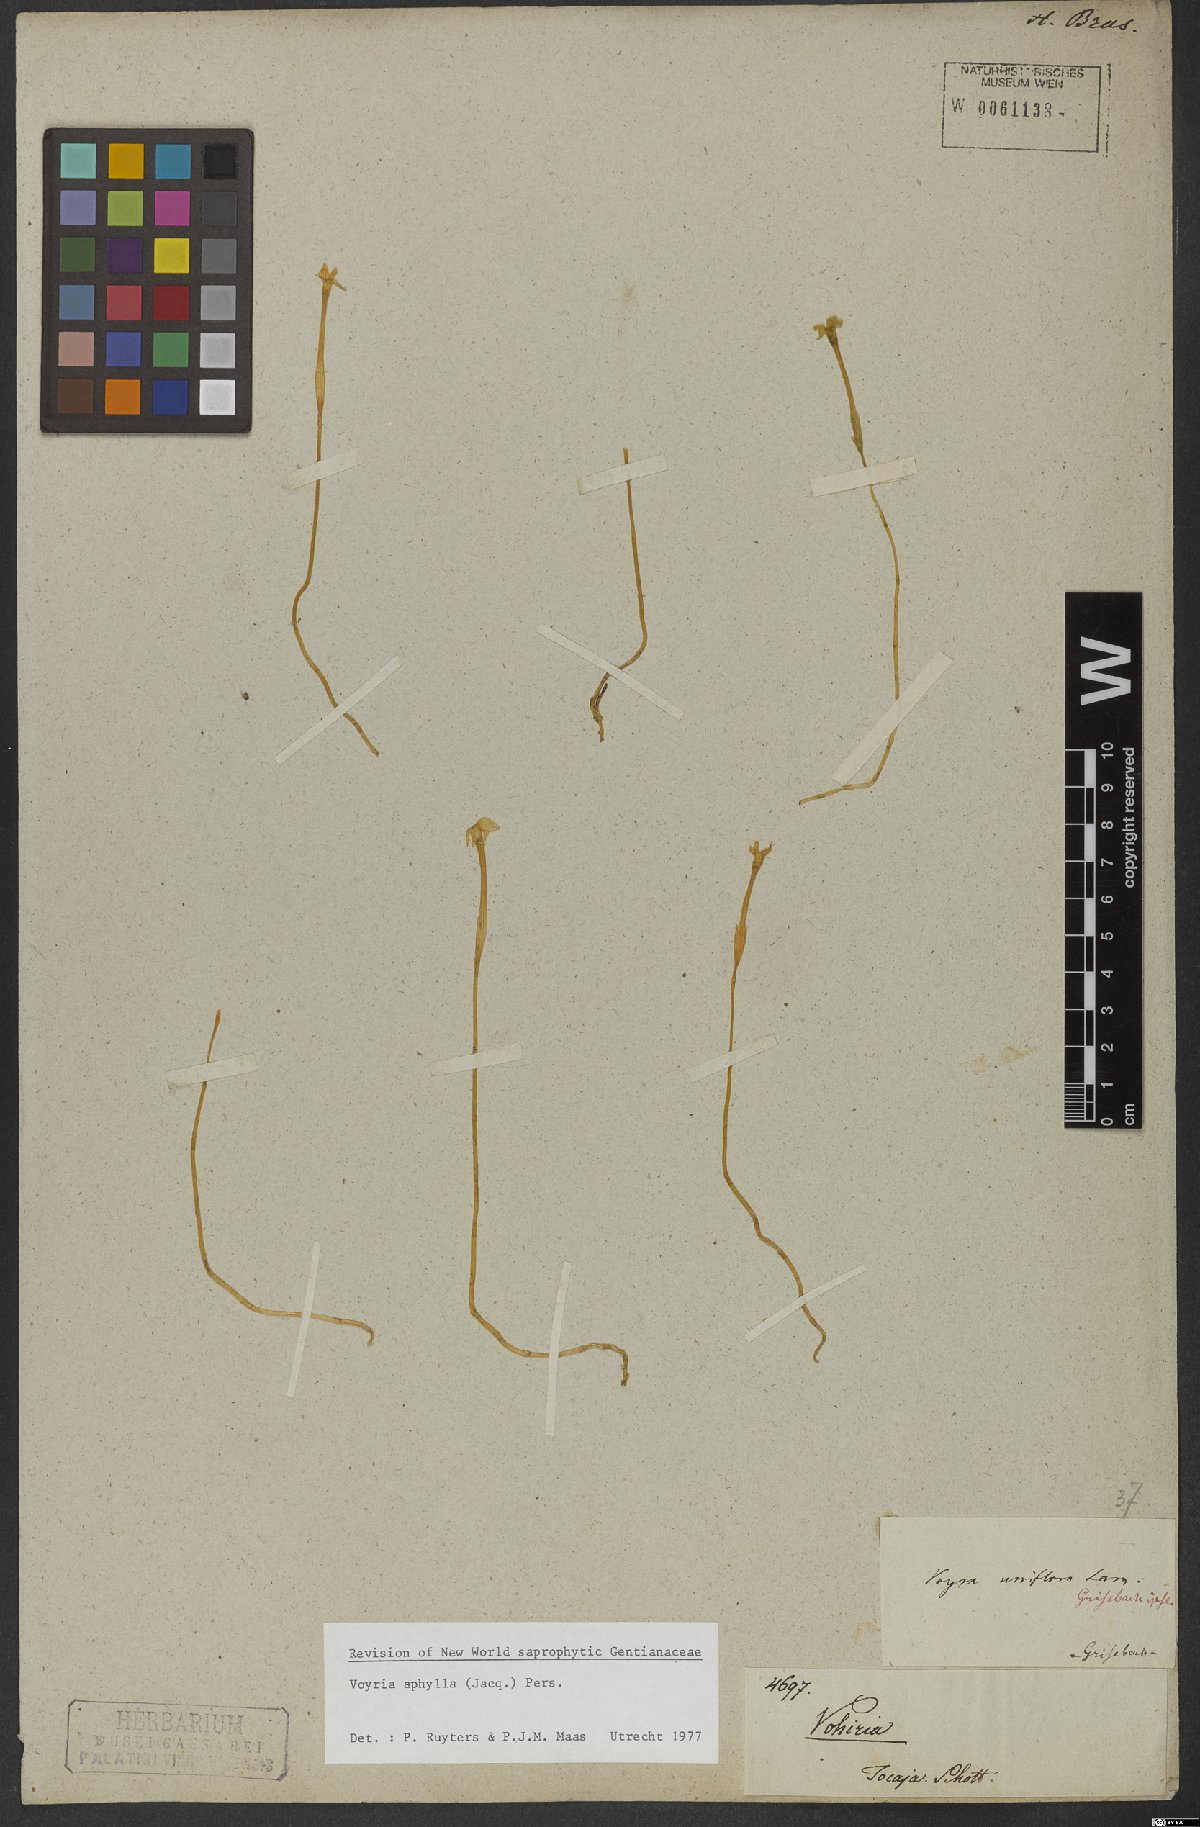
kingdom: Plantae
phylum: Tracheophyta
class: Magnoliopsida
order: Gentianales
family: Gentianaceae
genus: Voyria
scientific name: Voyria aphylla
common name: Leafless ghost plant
